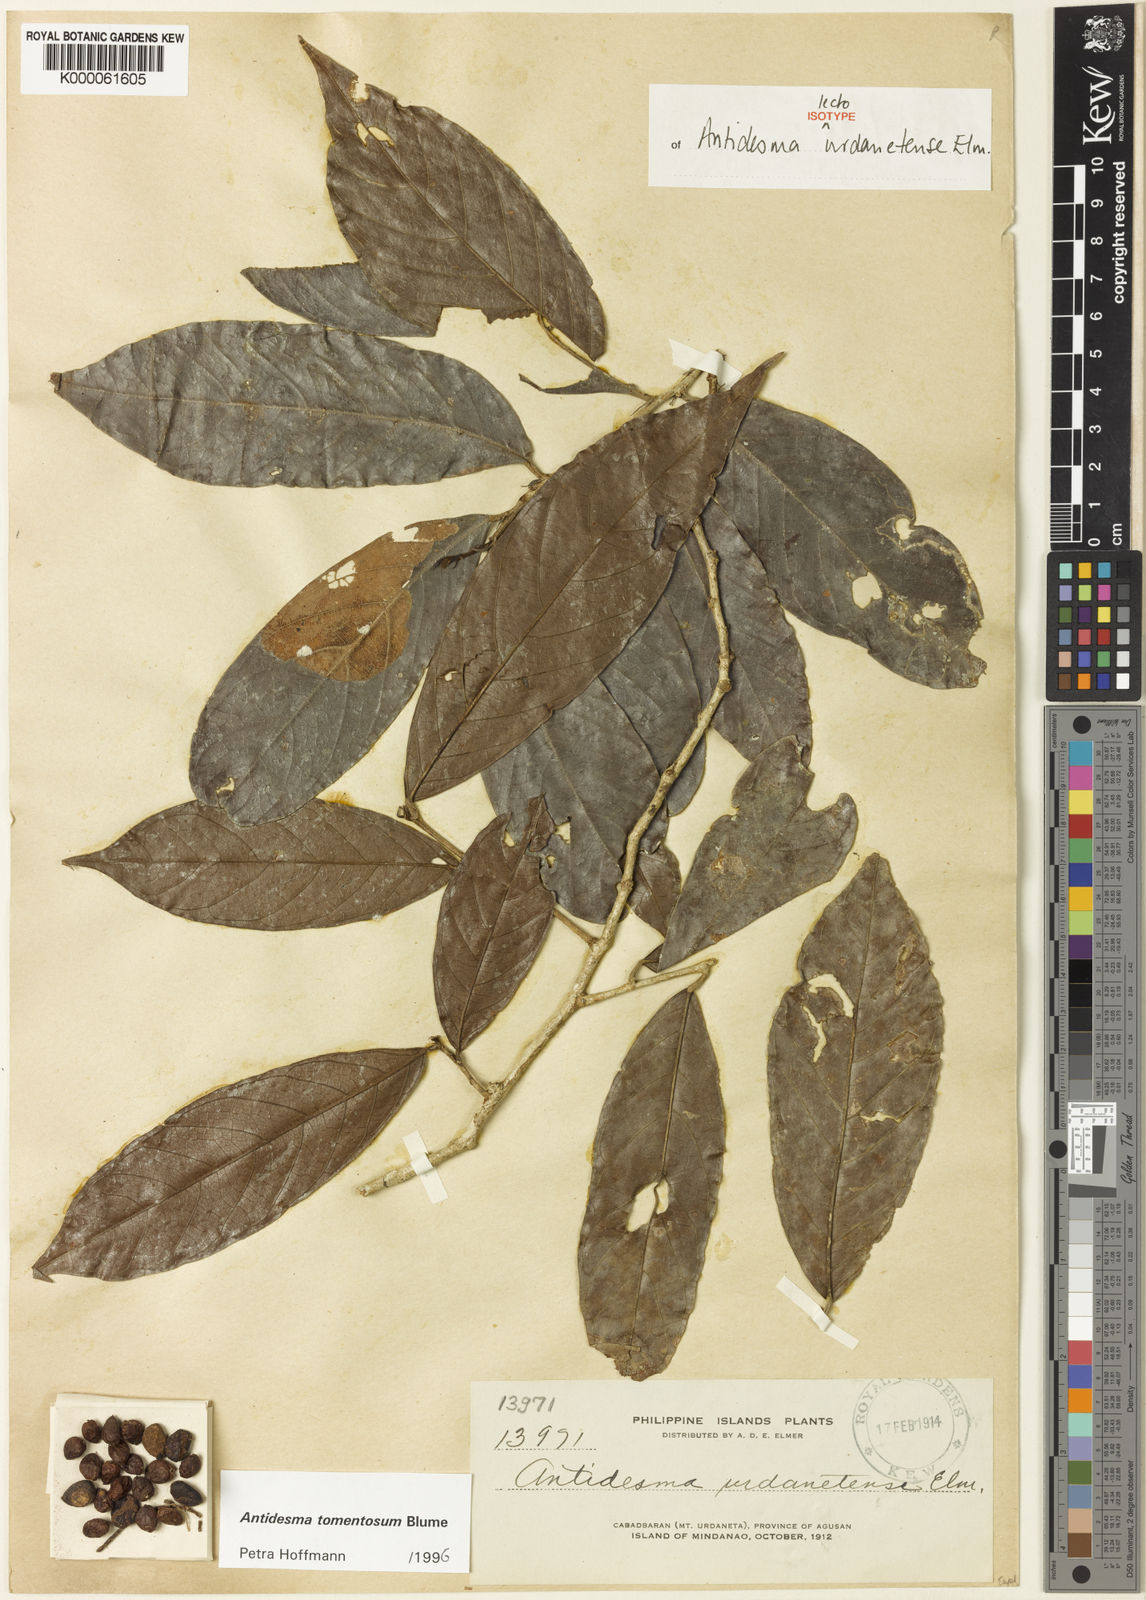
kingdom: Plantae
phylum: Tracheophyta
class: Magnoliopsida
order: Malpighiales
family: Phyllanthaceae
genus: Antidesma
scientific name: Antidesma tomentosum
